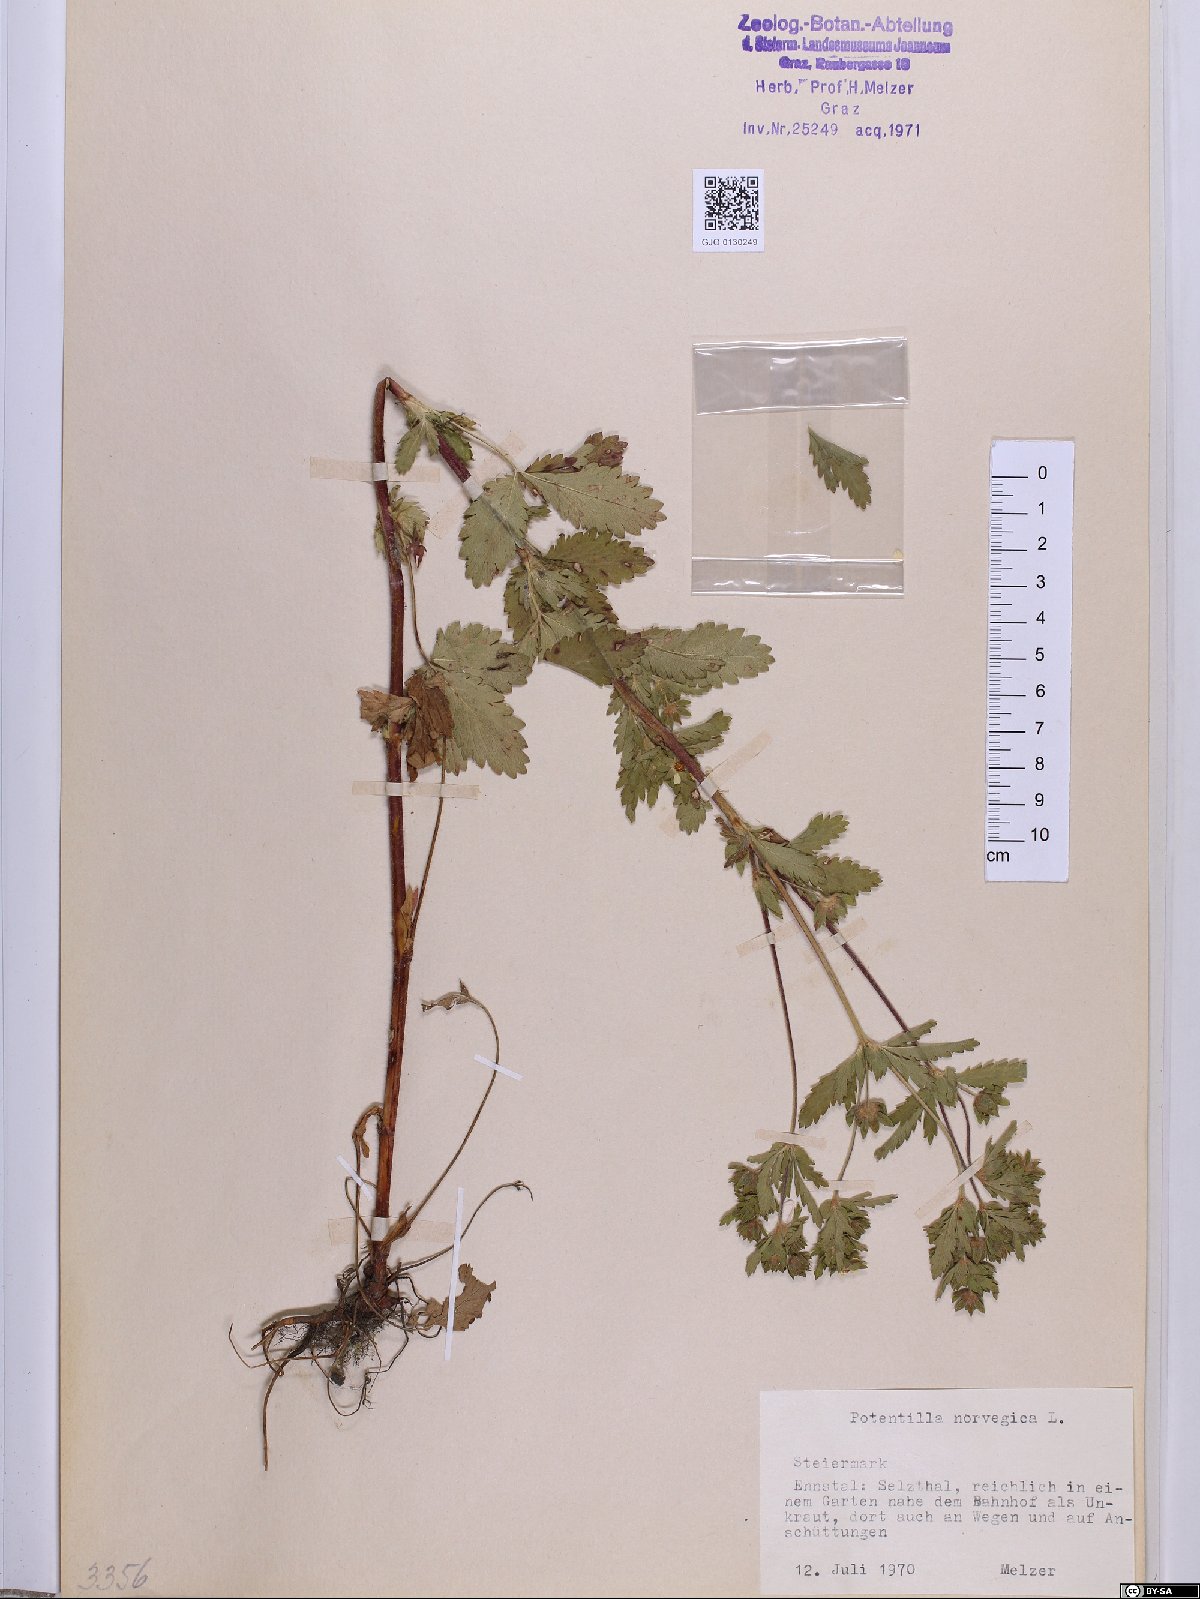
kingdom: Plantae
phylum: Tracheophyta
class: Magnoliopsida
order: Rosales
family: Rosaceae
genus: Potentilla
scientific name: Potentilla norvegica
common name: Ternate-leaved cinquefoil
